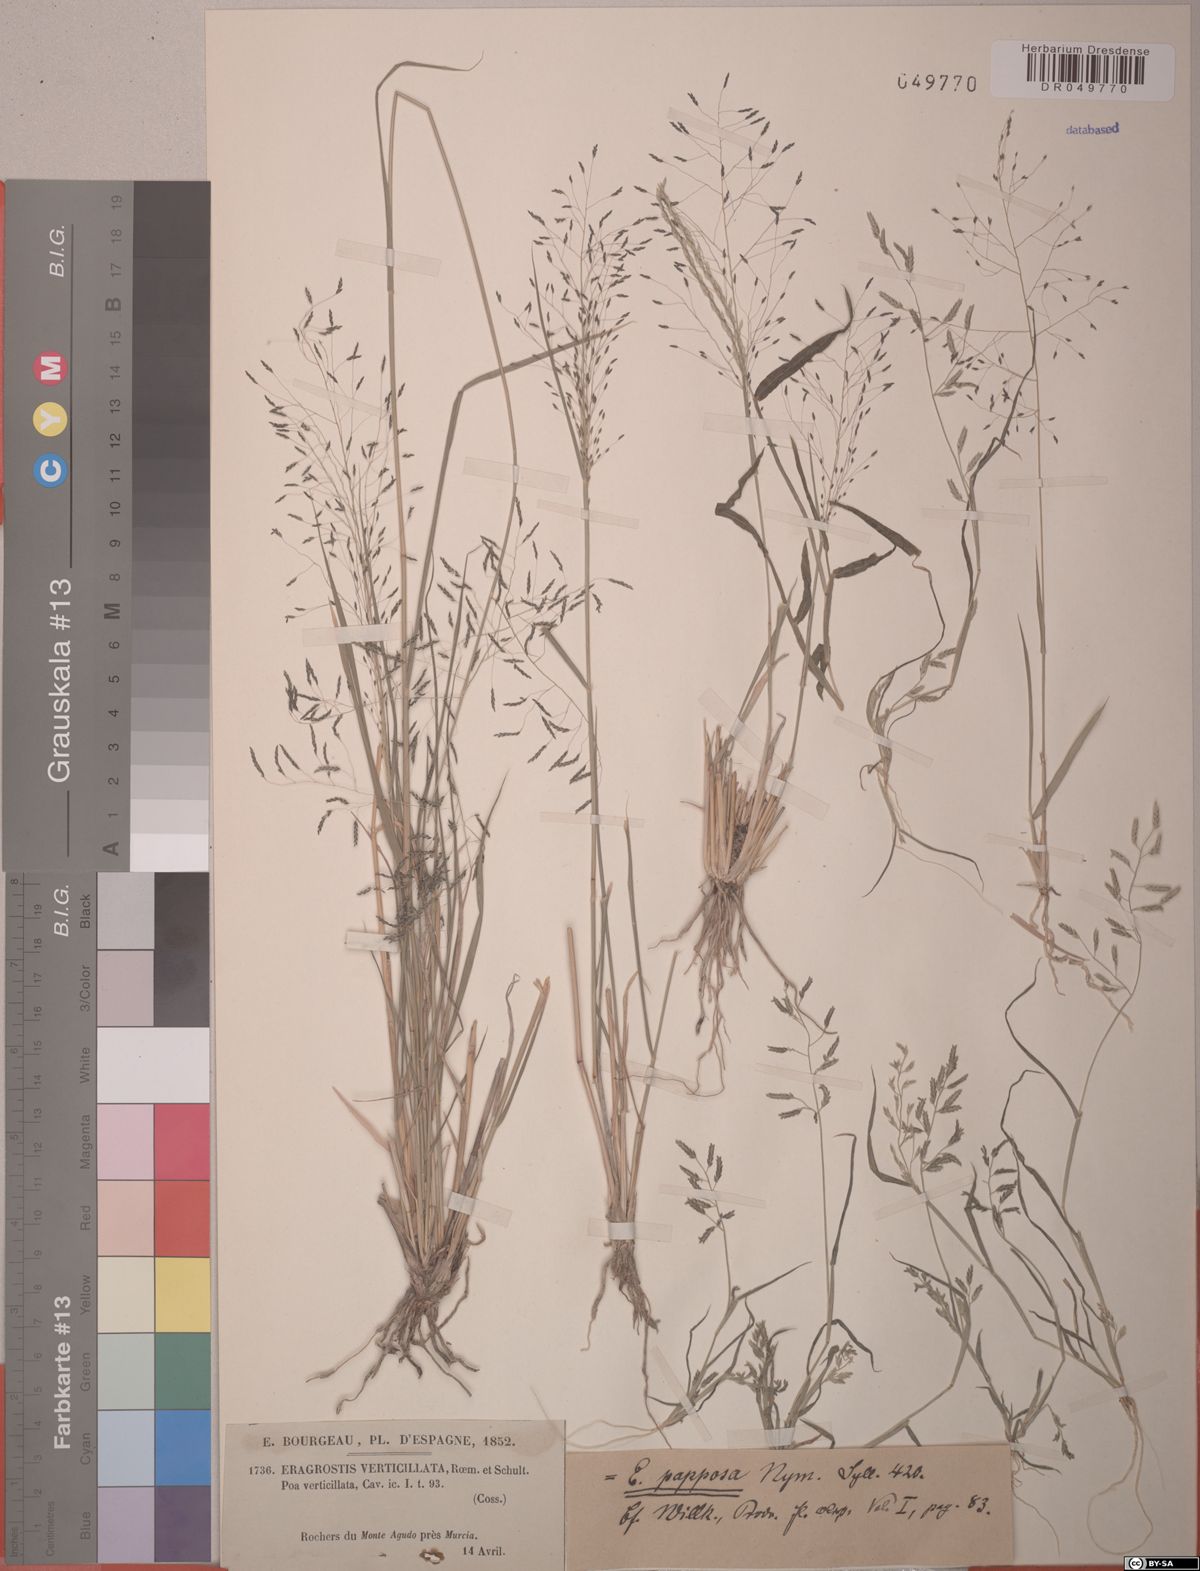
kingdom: Plantae
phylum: Tracheophyta
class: Liliopsida
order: Poales
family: Poaceae
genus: Eragrostis
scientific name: Eragrostis papposa
